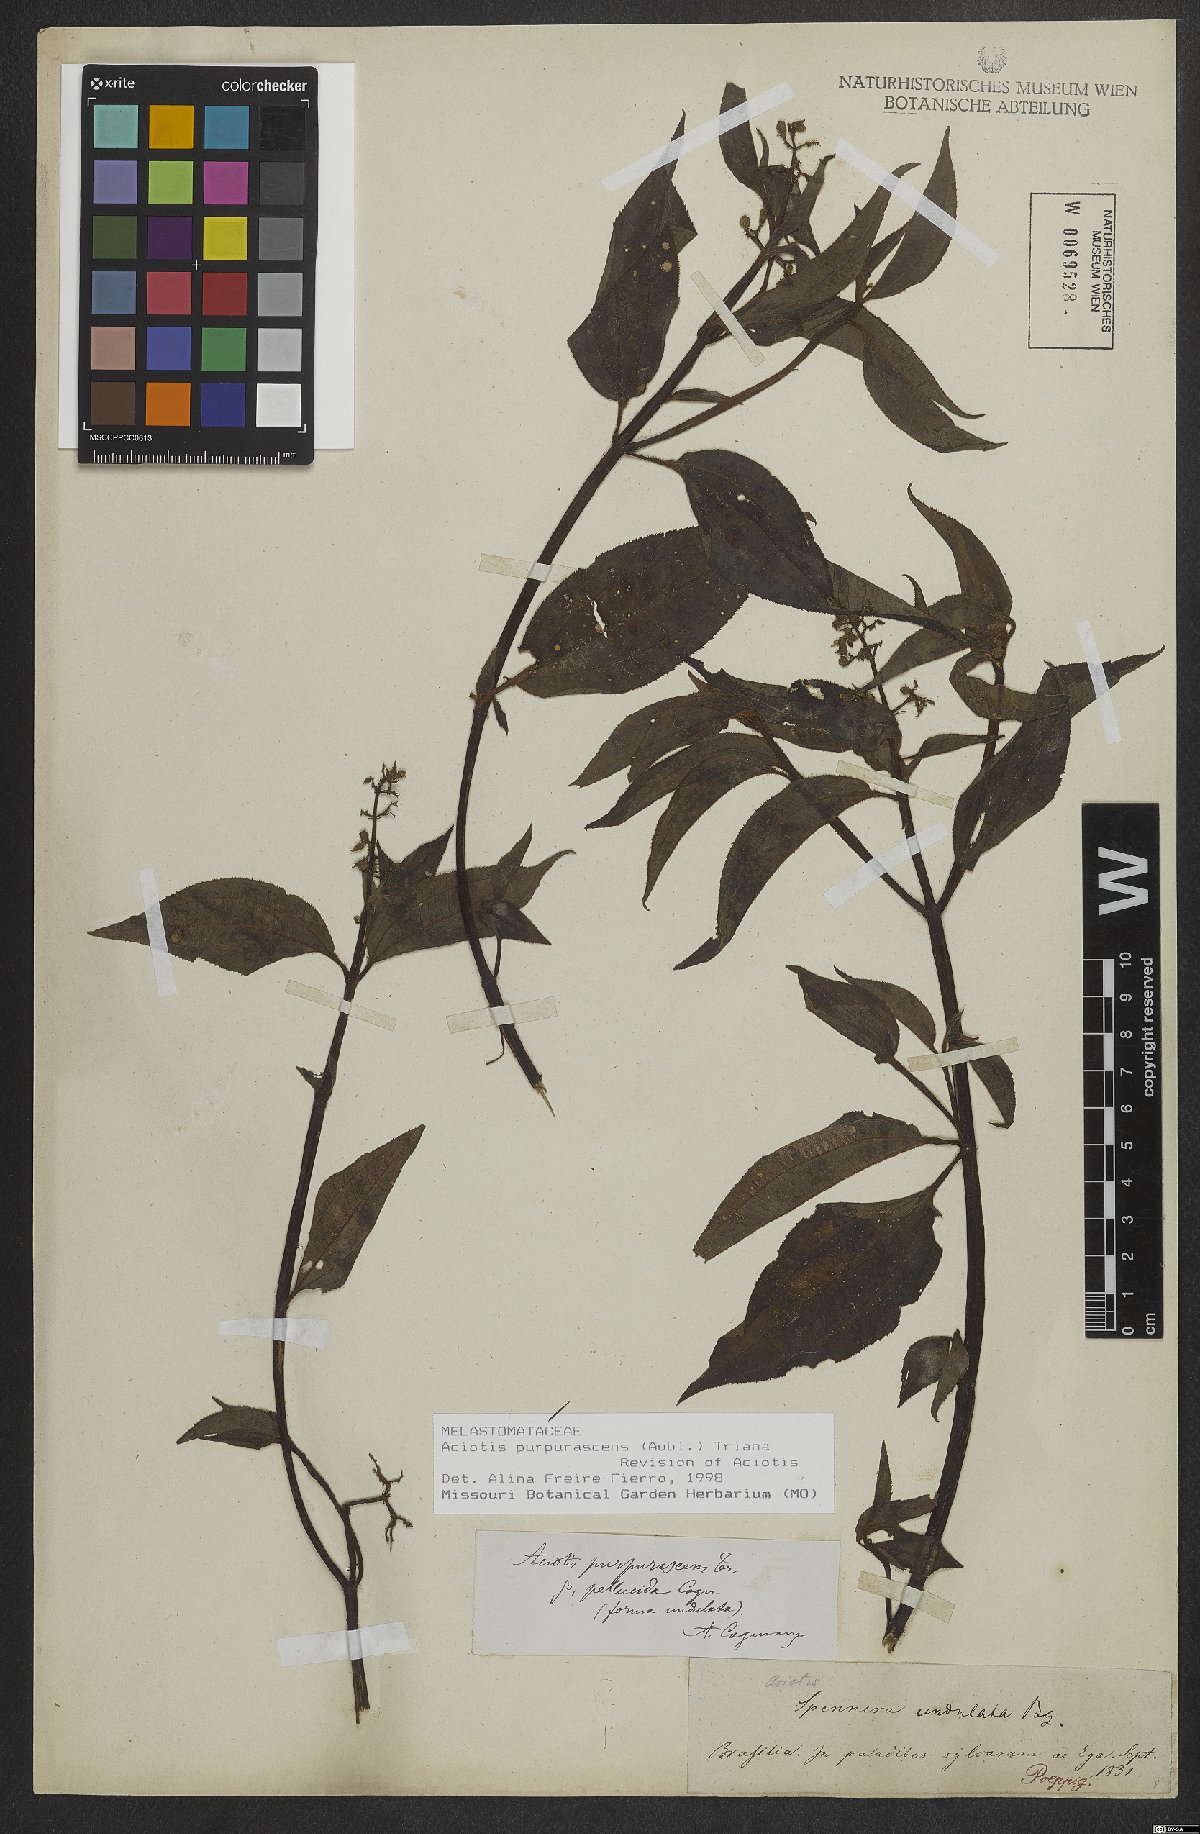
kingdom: Plantae
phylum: Tracheophyta
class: Magnoliopsida
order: Myrtales
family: Melastomataceae
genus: Aciotis
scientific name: Aciotis purpurascens
